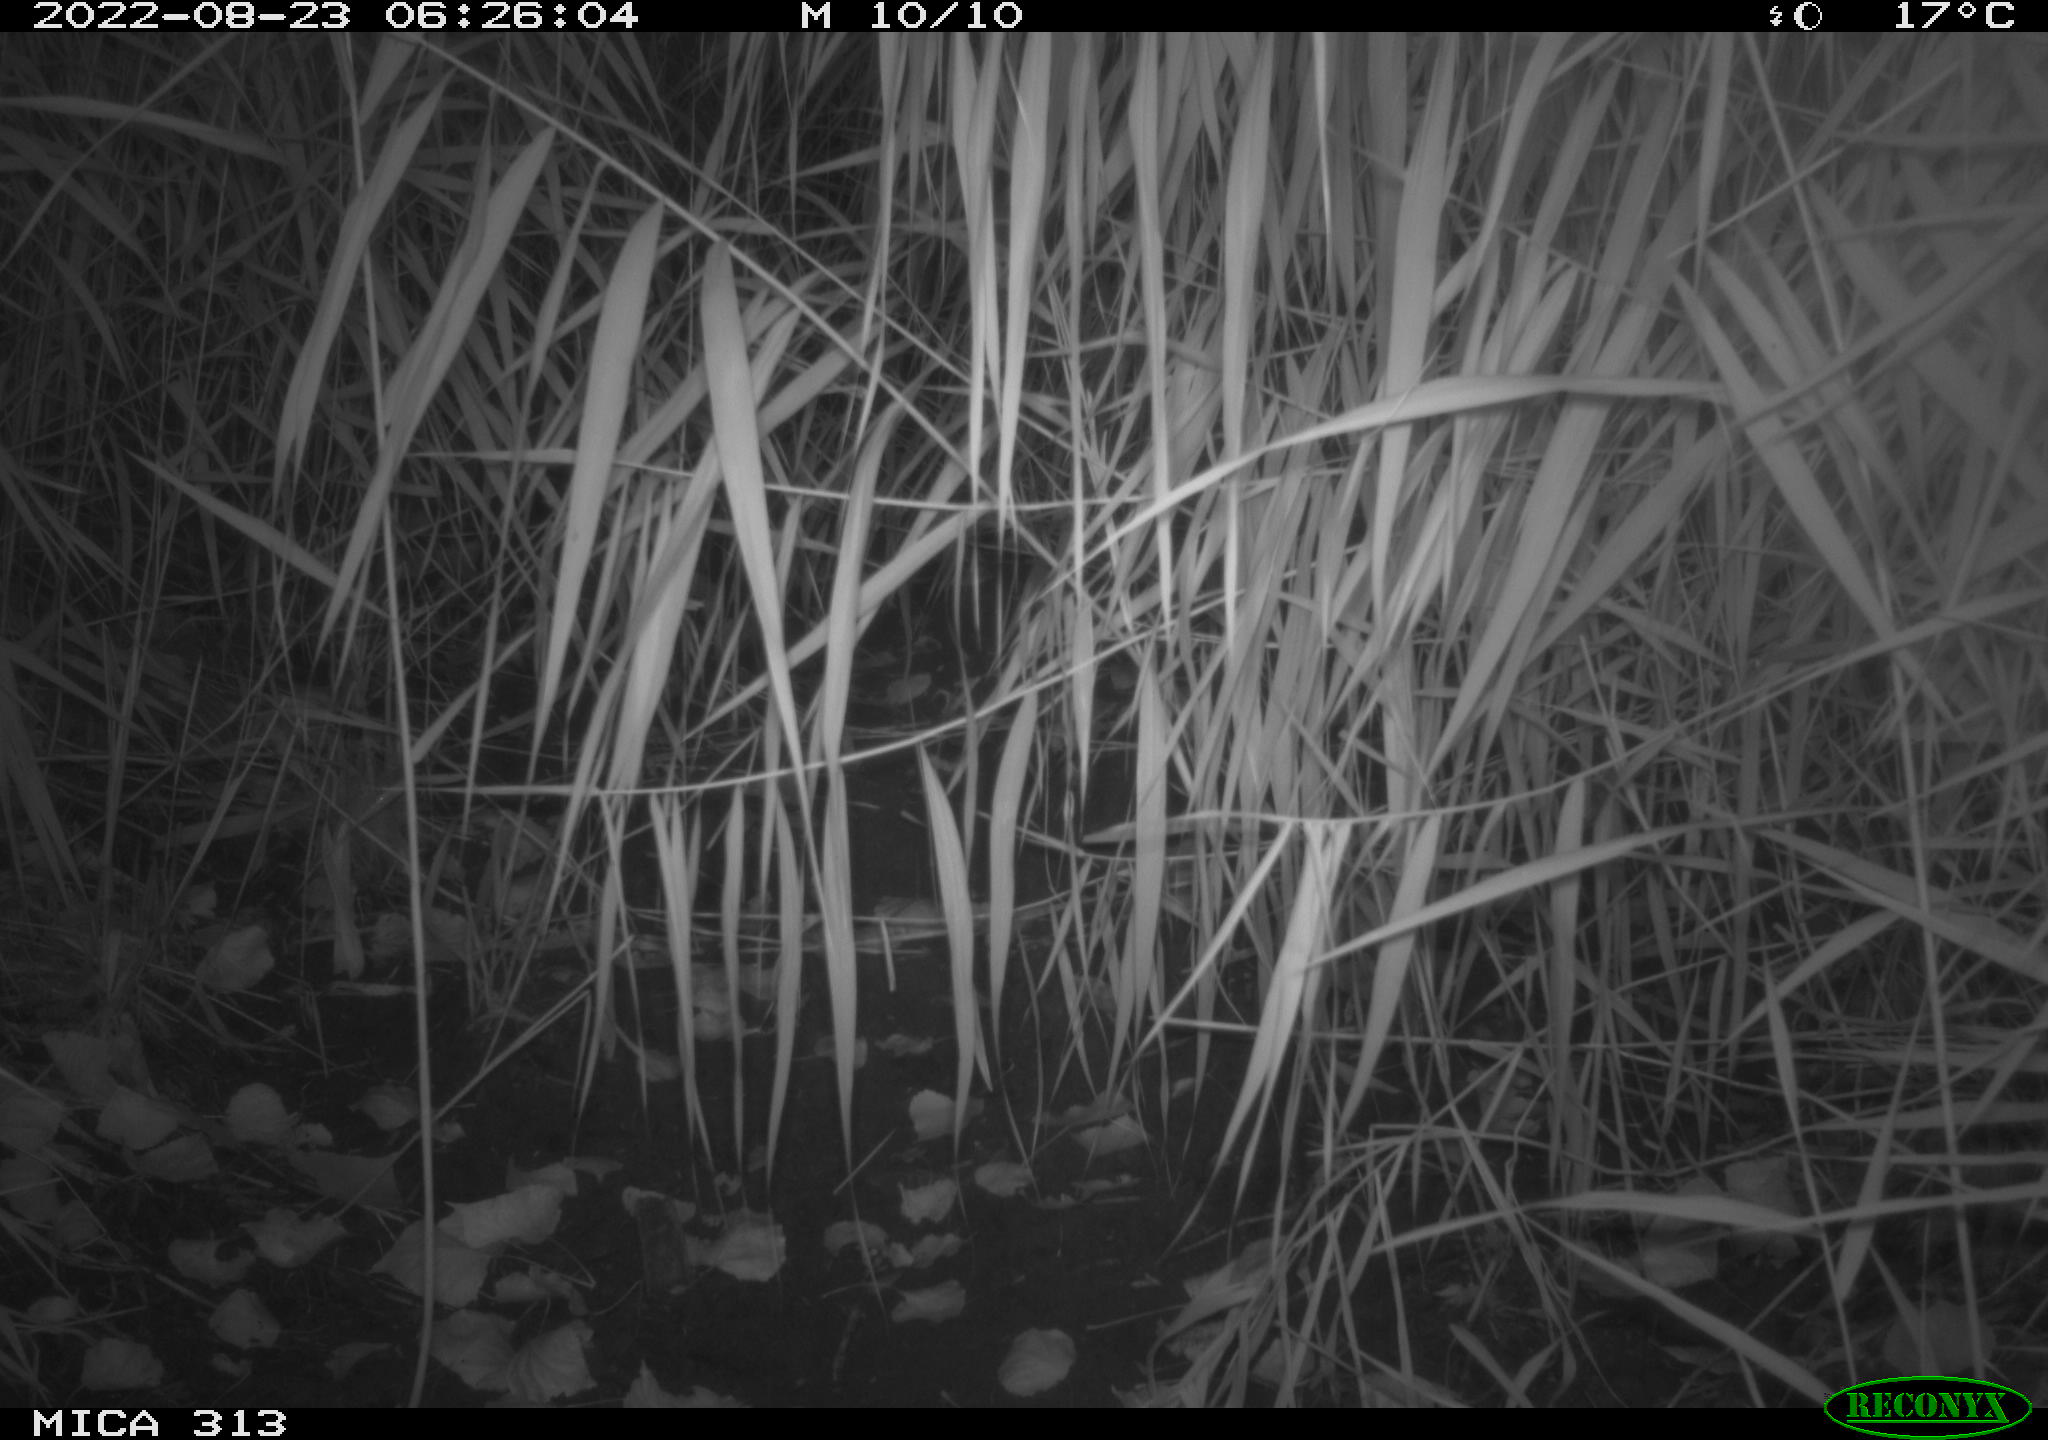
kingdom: Animalia
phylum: Chordata
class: Mammalia
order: Rodentia
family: Muridae
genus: Rattus
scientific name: Rattus norvegicus
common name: Brown rat
